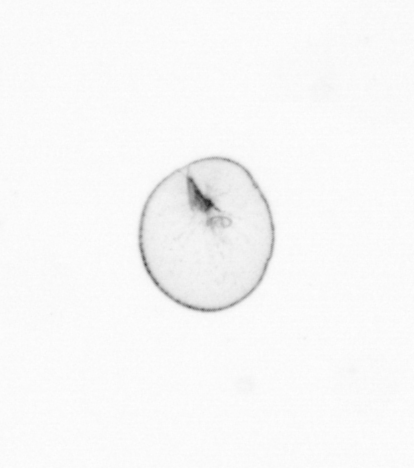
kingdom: Chromista
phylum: Myzozoa
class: Dinophyceae
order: Noctilucales
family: Noctilucaceae
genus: Noctiluca
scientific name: Noctiluca scintillans
